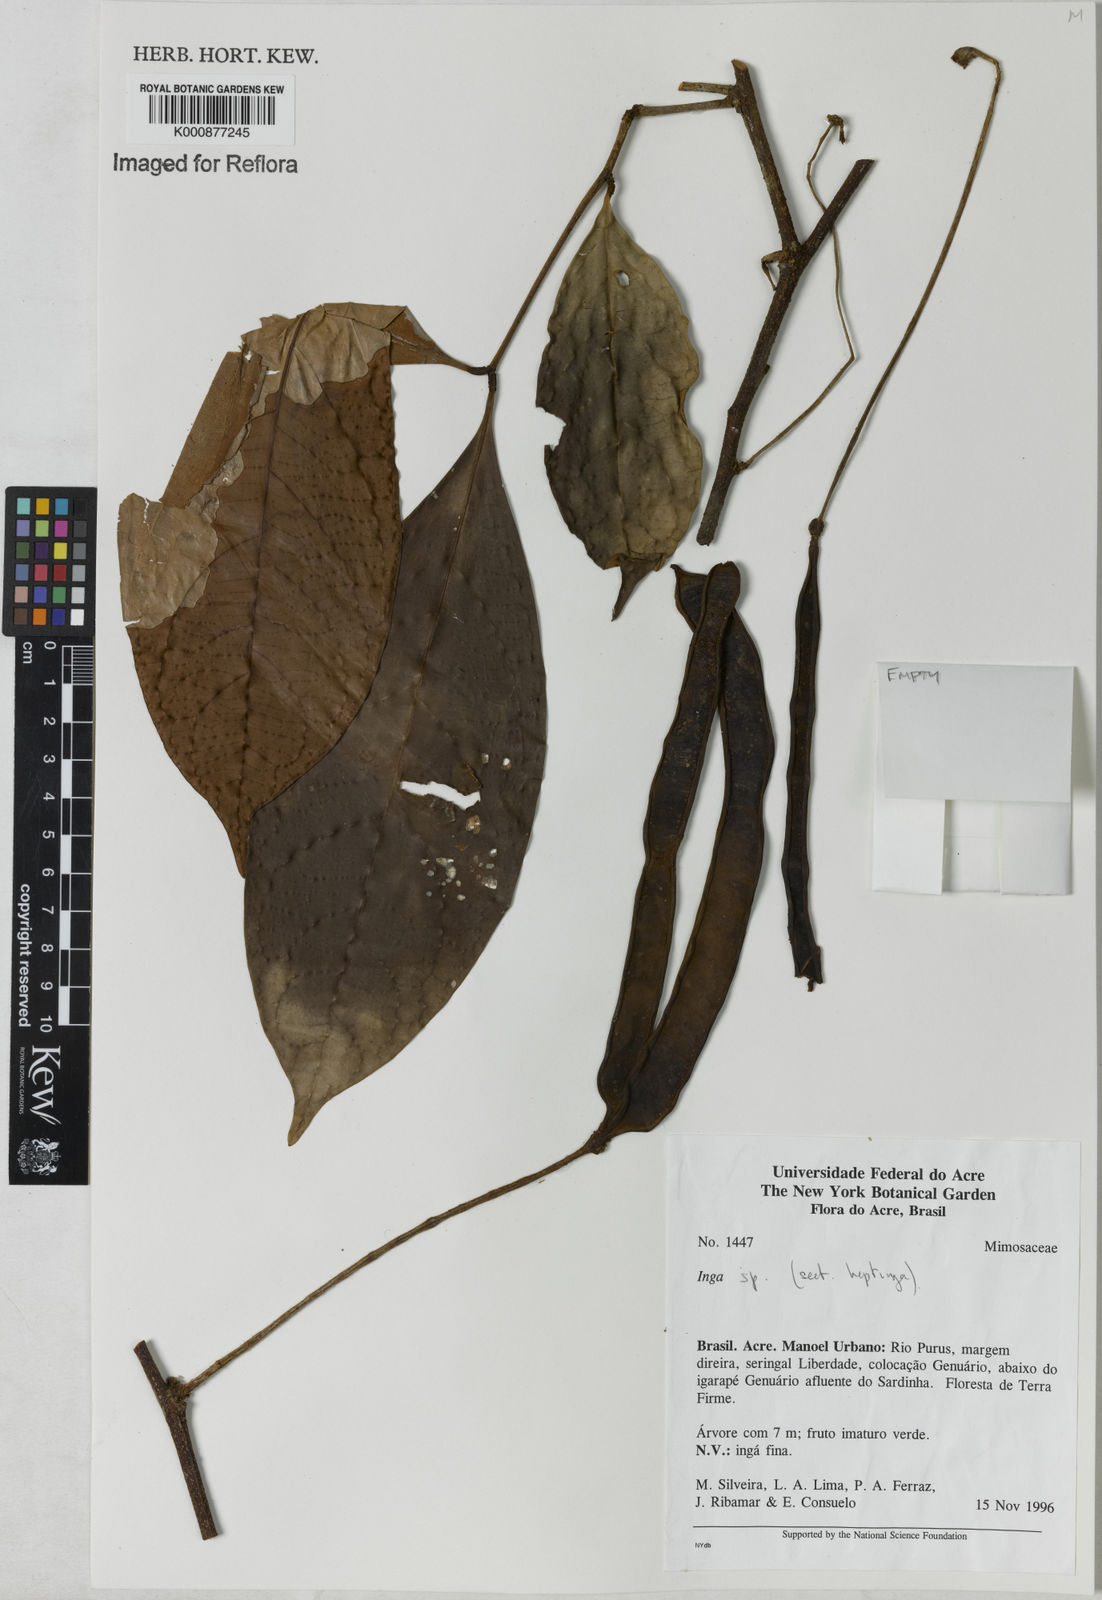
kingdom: Plantae
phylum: Tracheophyta
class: Magnoliopsida
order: Fabales
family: Fabaceae
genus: Inga
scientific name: Inga
